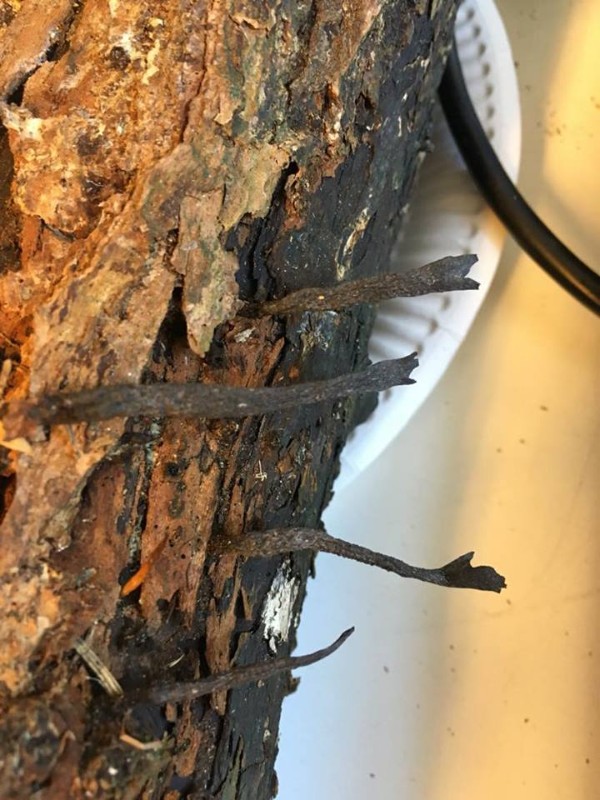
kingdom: Fungi
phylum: Ascomycota
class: Sordariomycetes
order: Xylariales
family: Xylariaceae
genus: Xylaria
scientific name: Xylaria hypoxylon
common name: grenet stødsvamp
